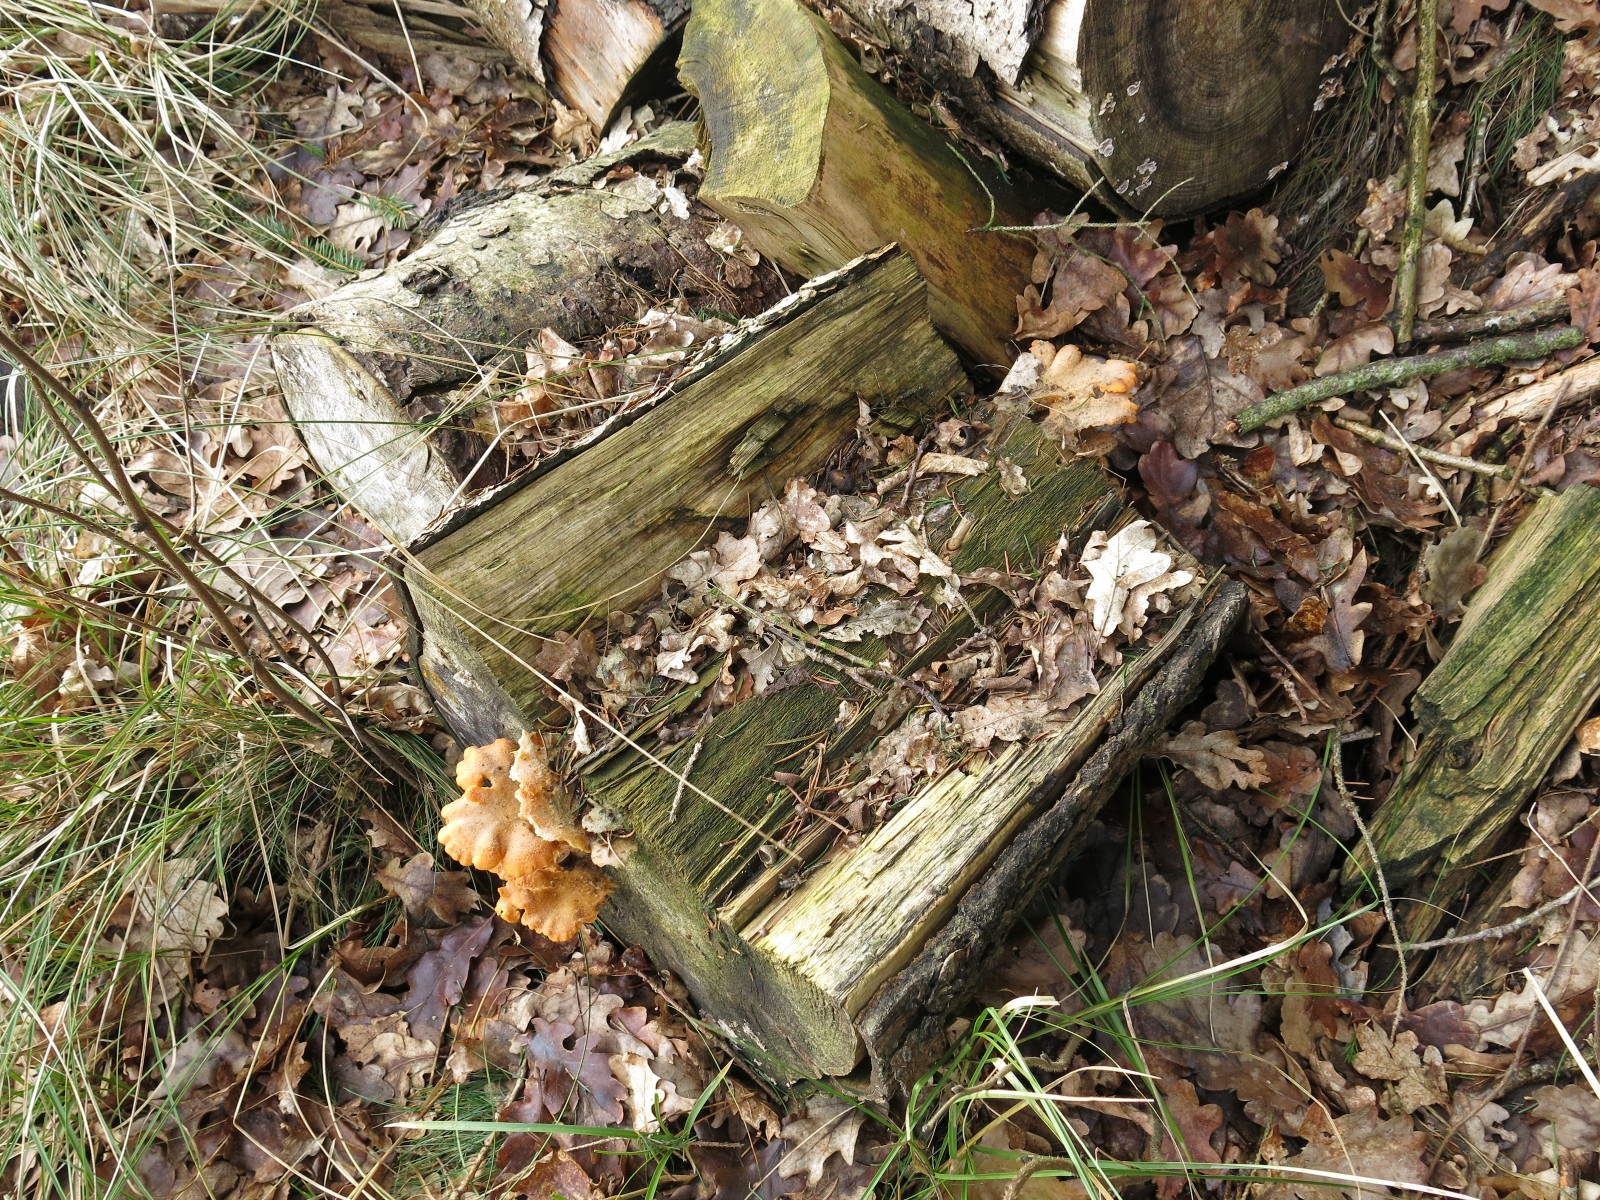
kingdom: Fungi
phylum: Basidiomycota
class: Agaricomycetes
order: Agaricales
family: Phyllotopsidaceae
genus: Phyllotopsis
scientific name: Phyllotopsis nidulans
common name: okkerblad
